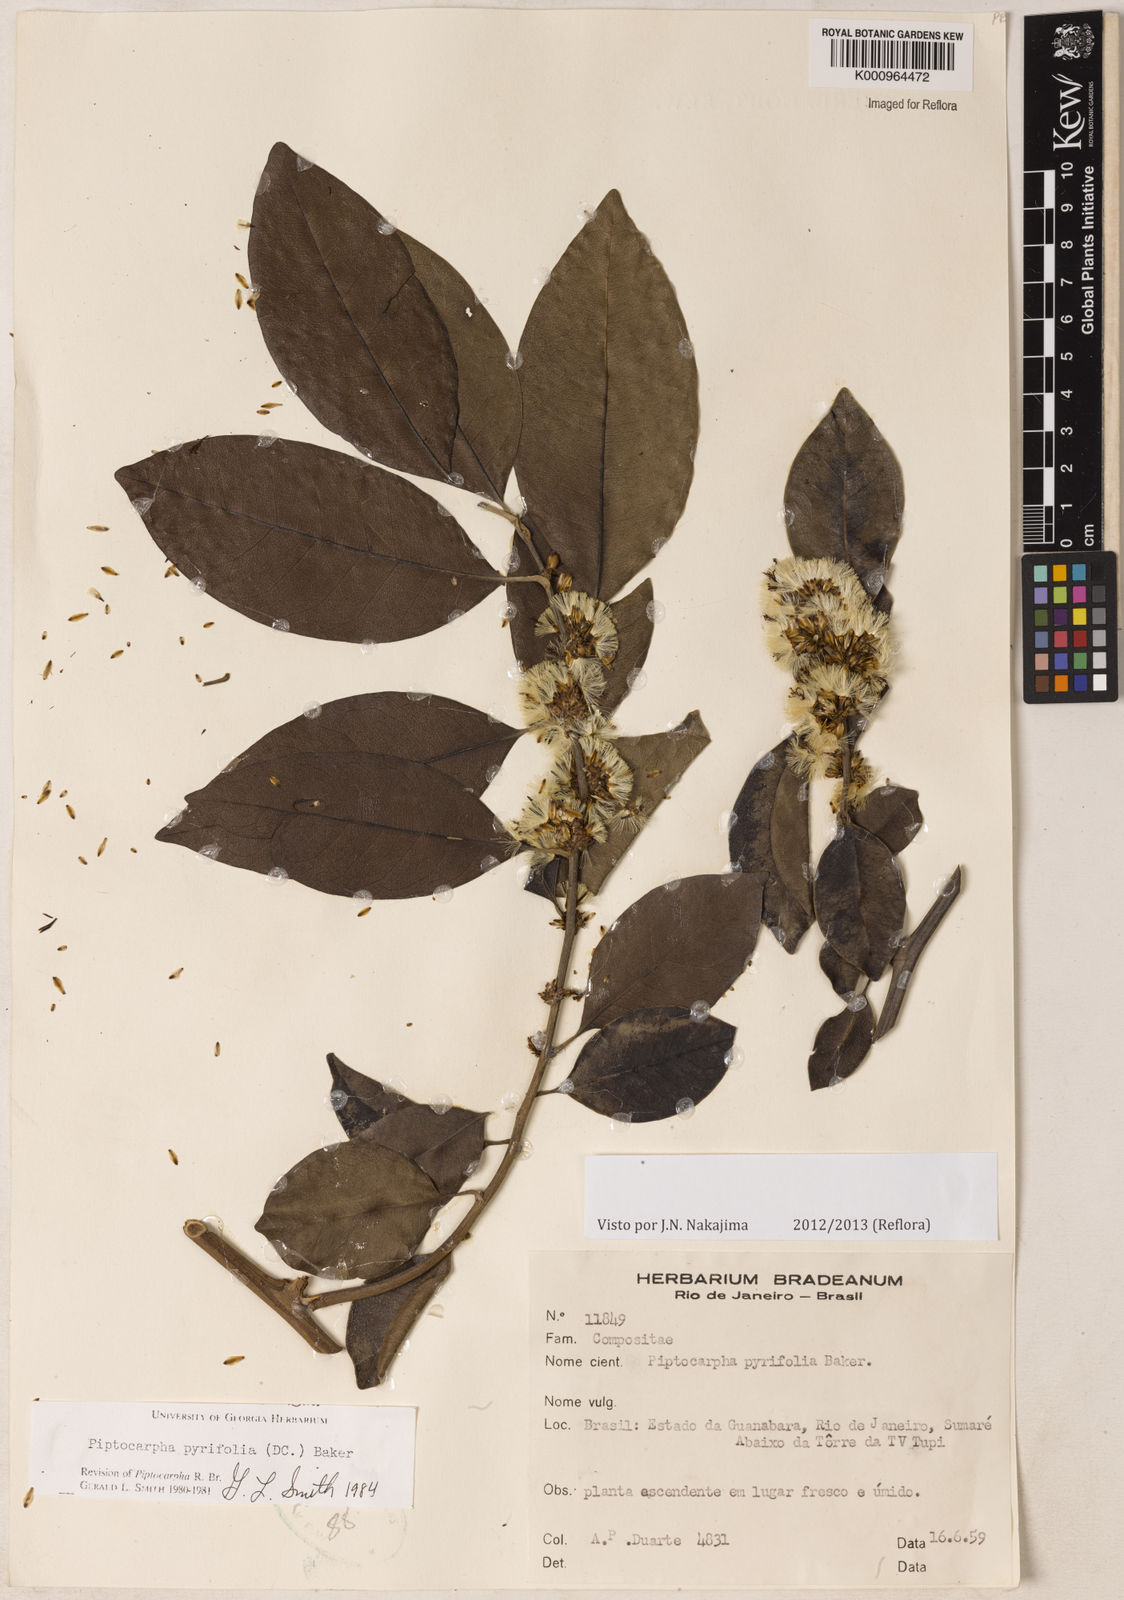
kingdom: Plantae
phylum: Tracheophyta
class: Magnoliopsida
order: Asterales
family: Asteraceae
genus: Piptocarpha
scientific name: Piptocarpha pyrifolia
